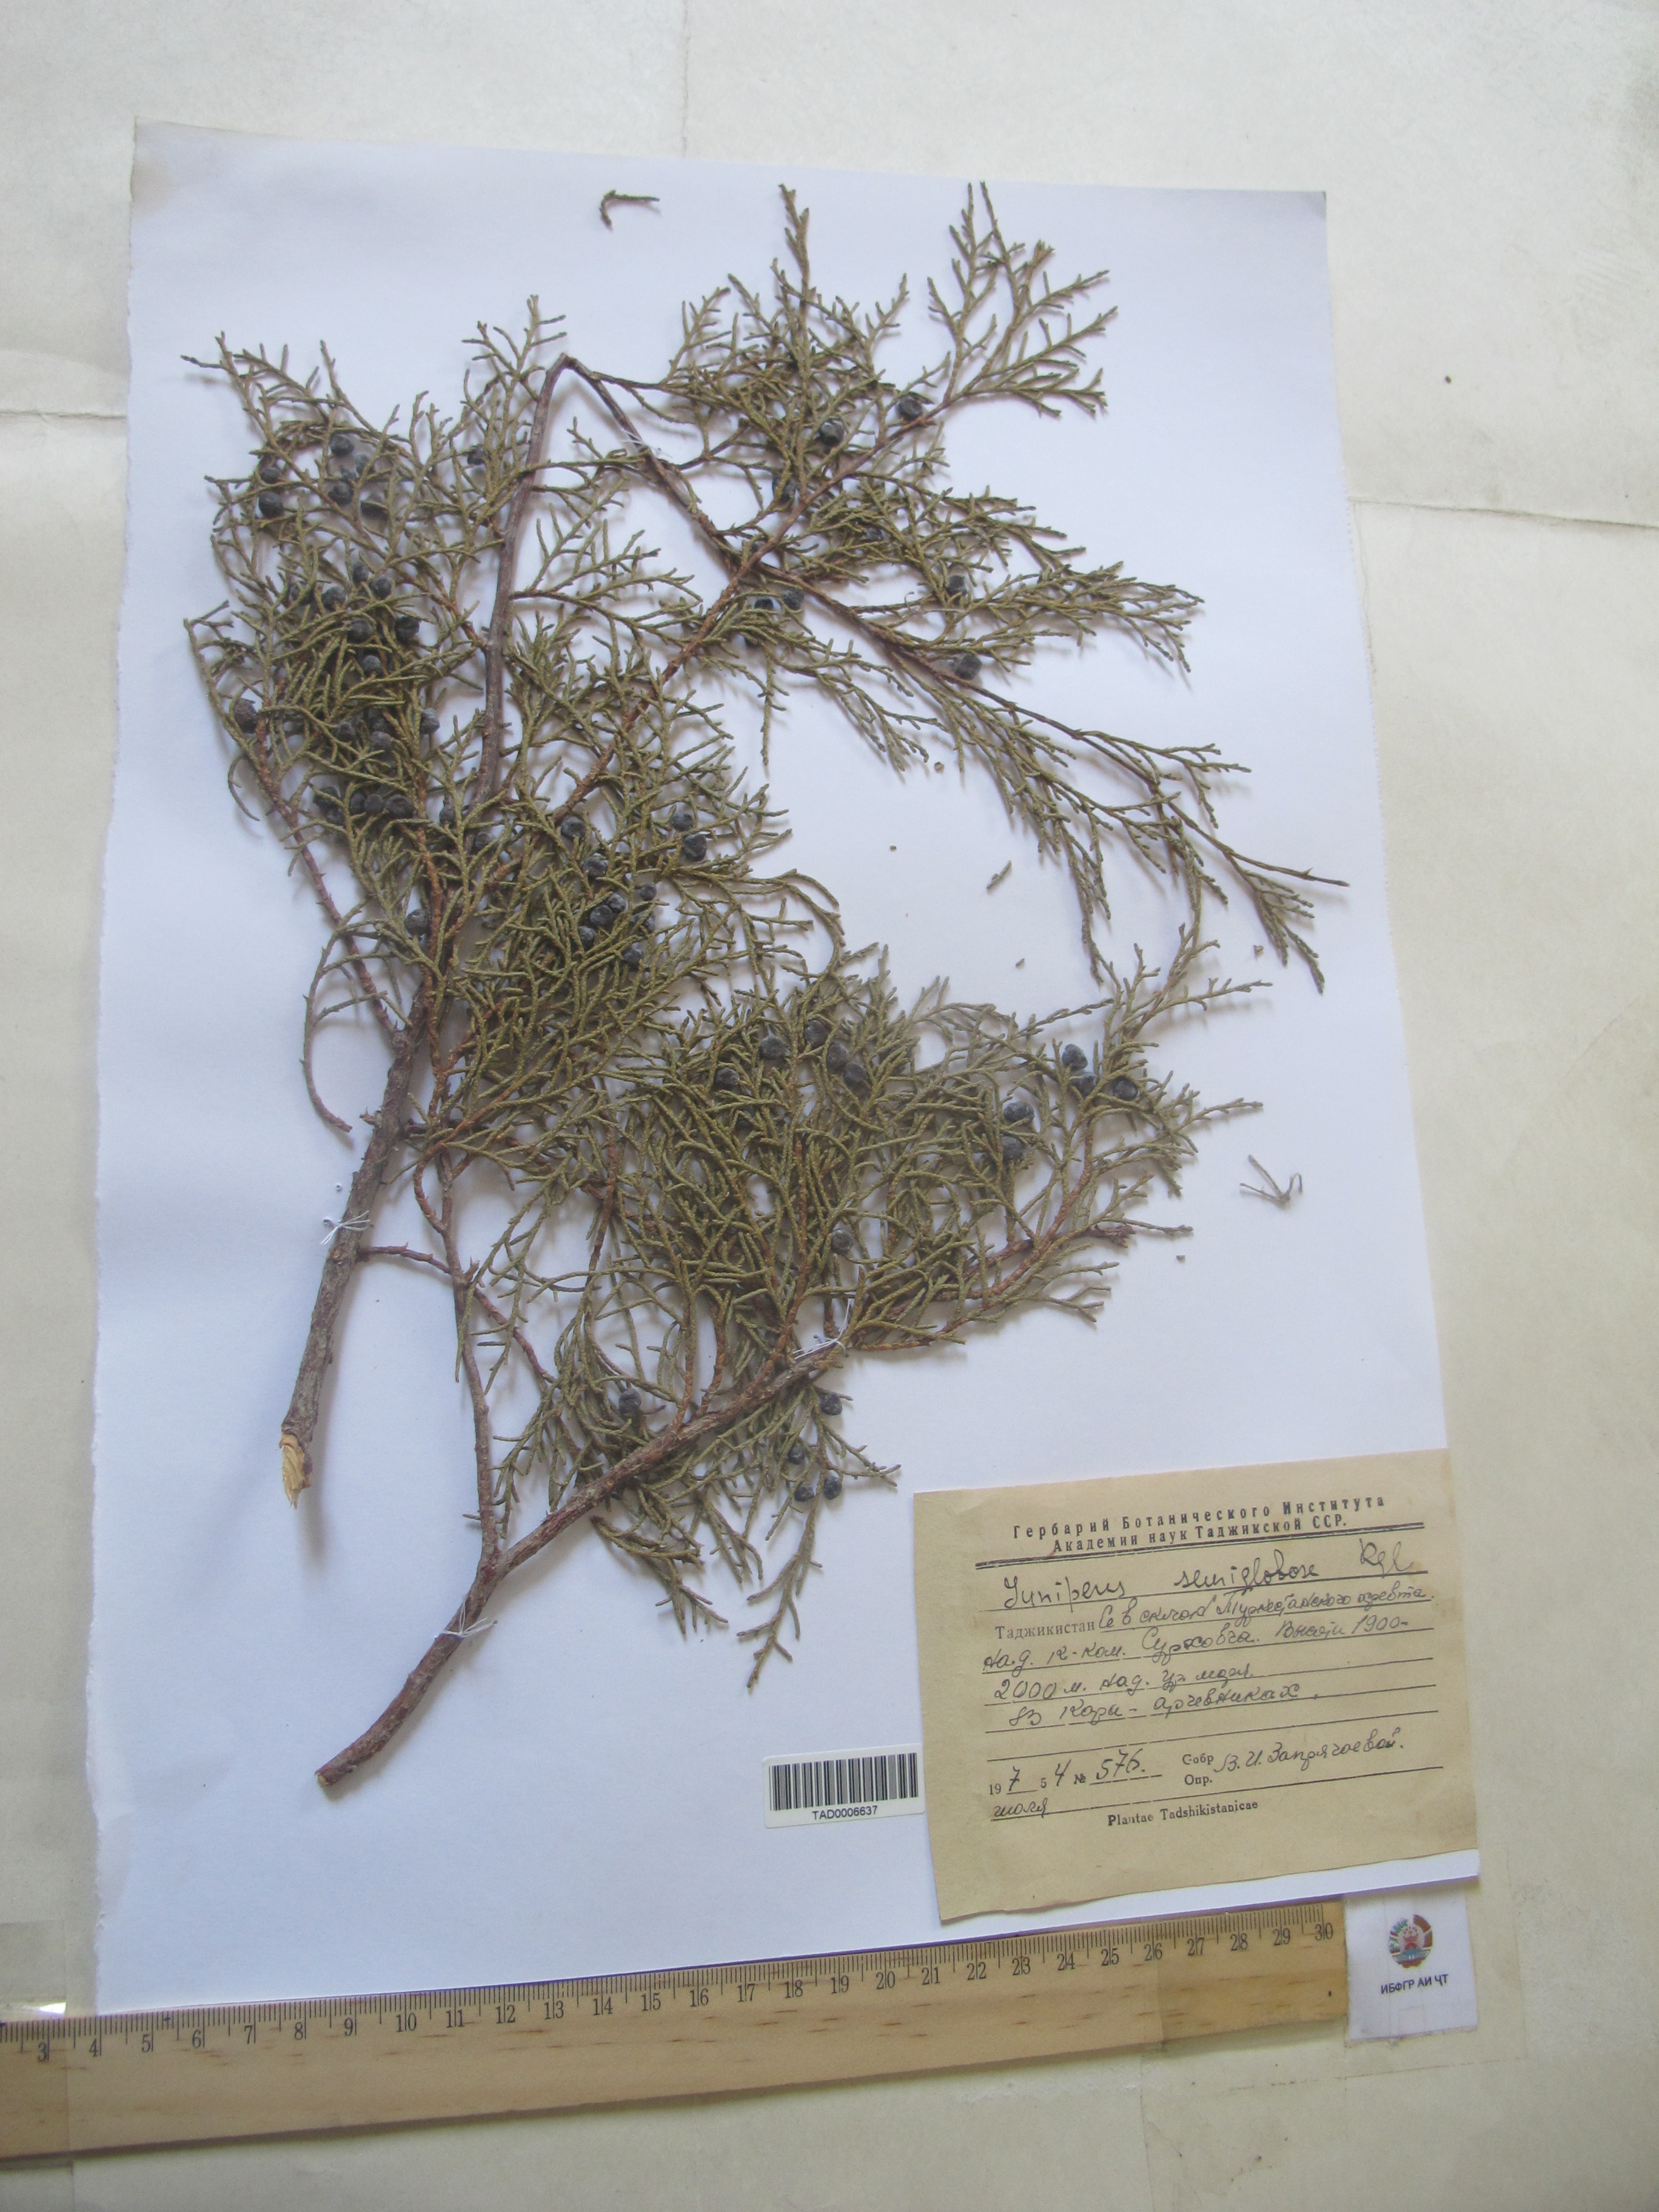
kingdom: Plantae
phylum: Tracheophyta
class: Pinopsida
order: Pinales
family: Cupressaceae
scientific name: Cupressaceae
